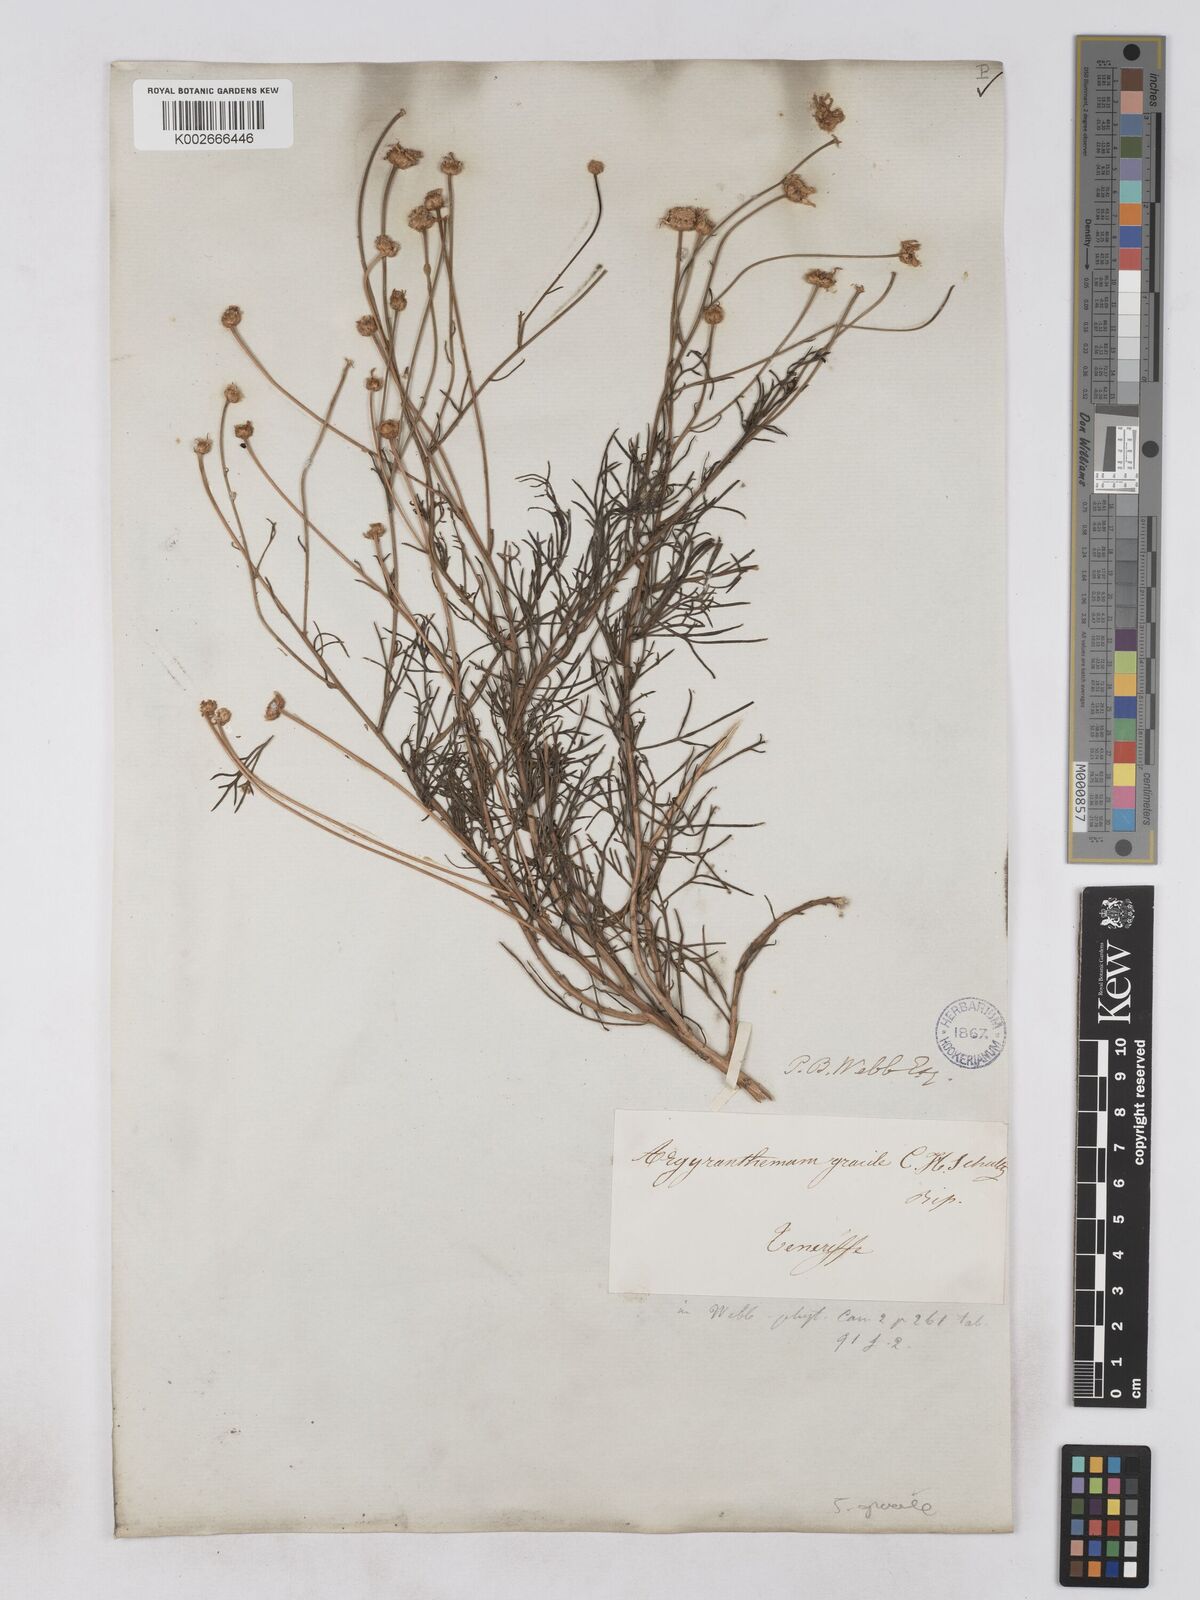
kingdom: Plantae
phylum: Tracheophyta
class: Magnoliopsida
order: Asterales
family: Asteraceae
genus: Argyranthemum
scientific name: Argyranthemum gracile
